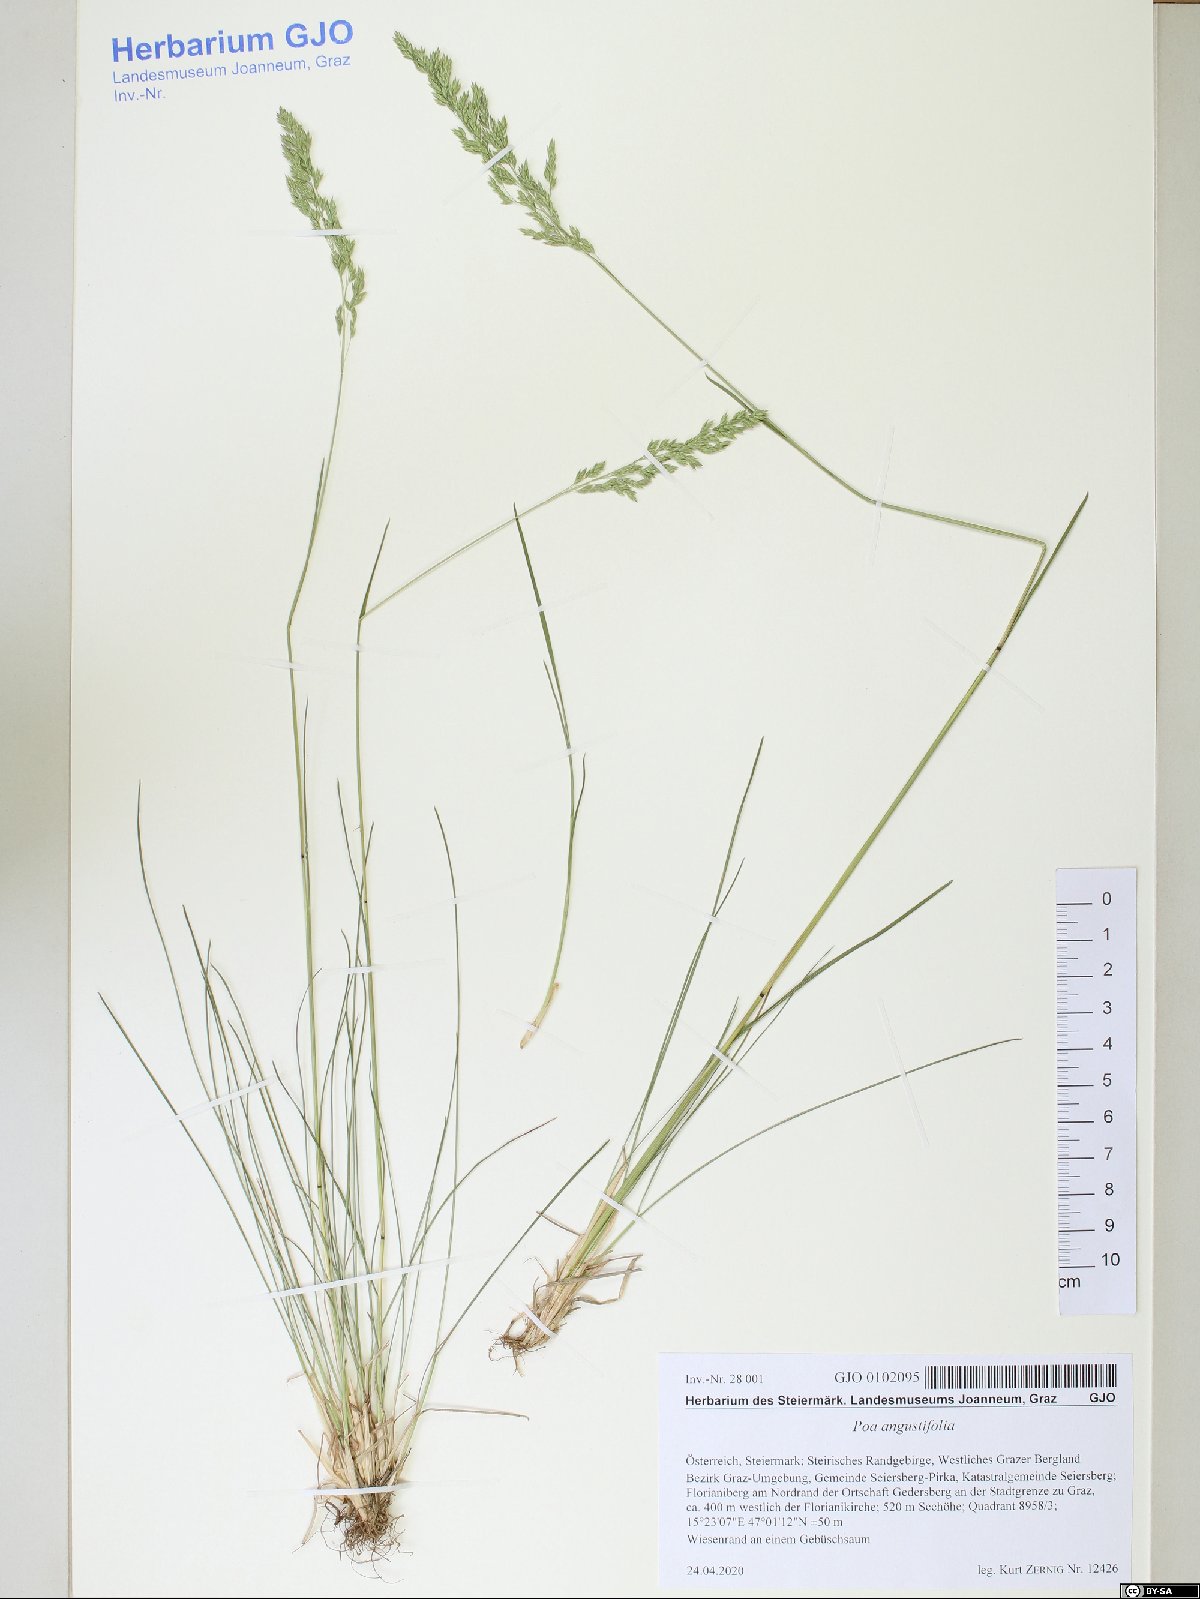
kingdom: Plantae
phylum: Tracheophyta
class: Liliopsida
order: Poales
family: Poaceae
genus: Poa
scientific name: Poa angustifolia
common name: Narrow-leaved meadow-grass
